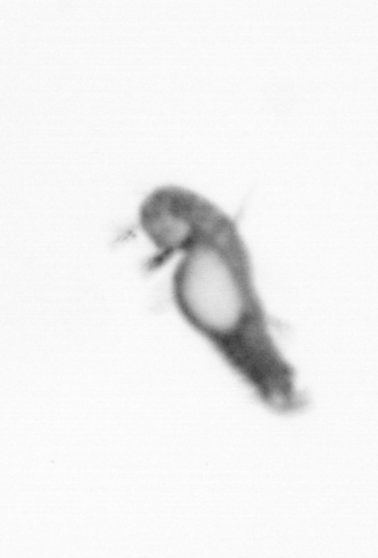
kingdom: Animalia
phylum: Annelida
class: Polychaeta
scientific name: Polychaeta
